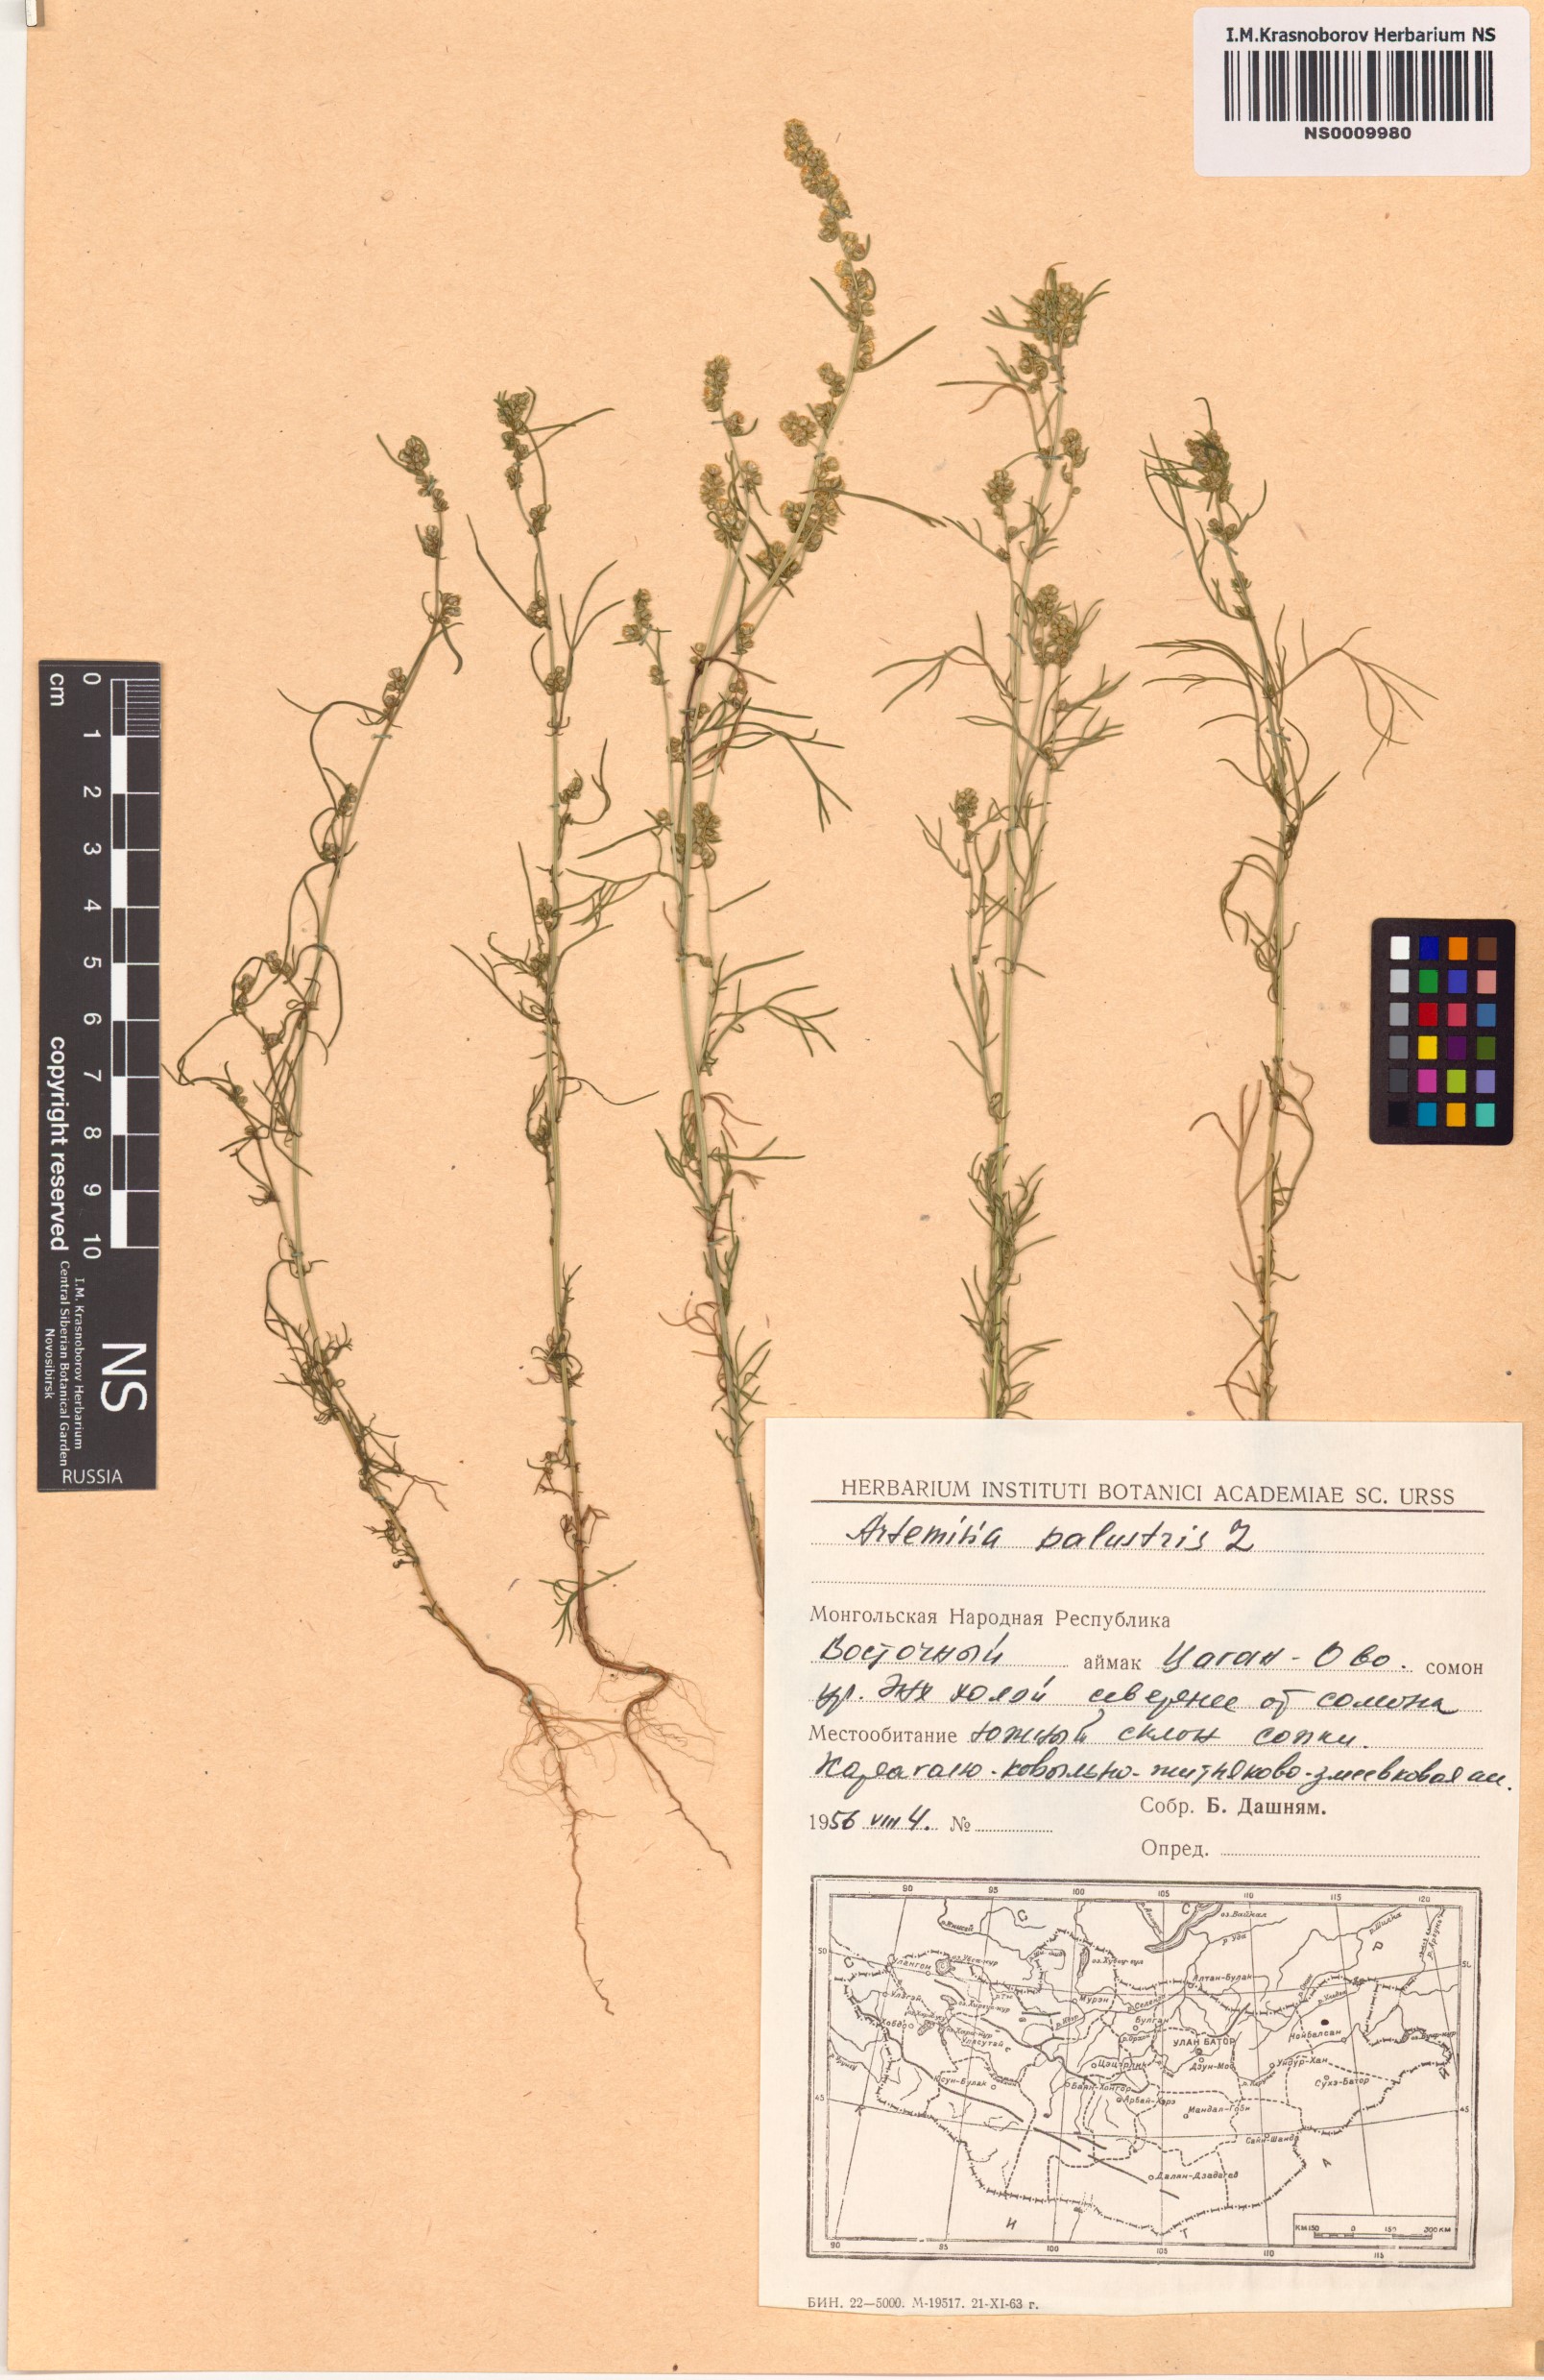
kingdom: Plantae
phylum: Tracheophyta
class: Magnoliopsida
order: Asterales
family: Asteraceae
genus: Artemisia
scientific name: Artemisia palustris
